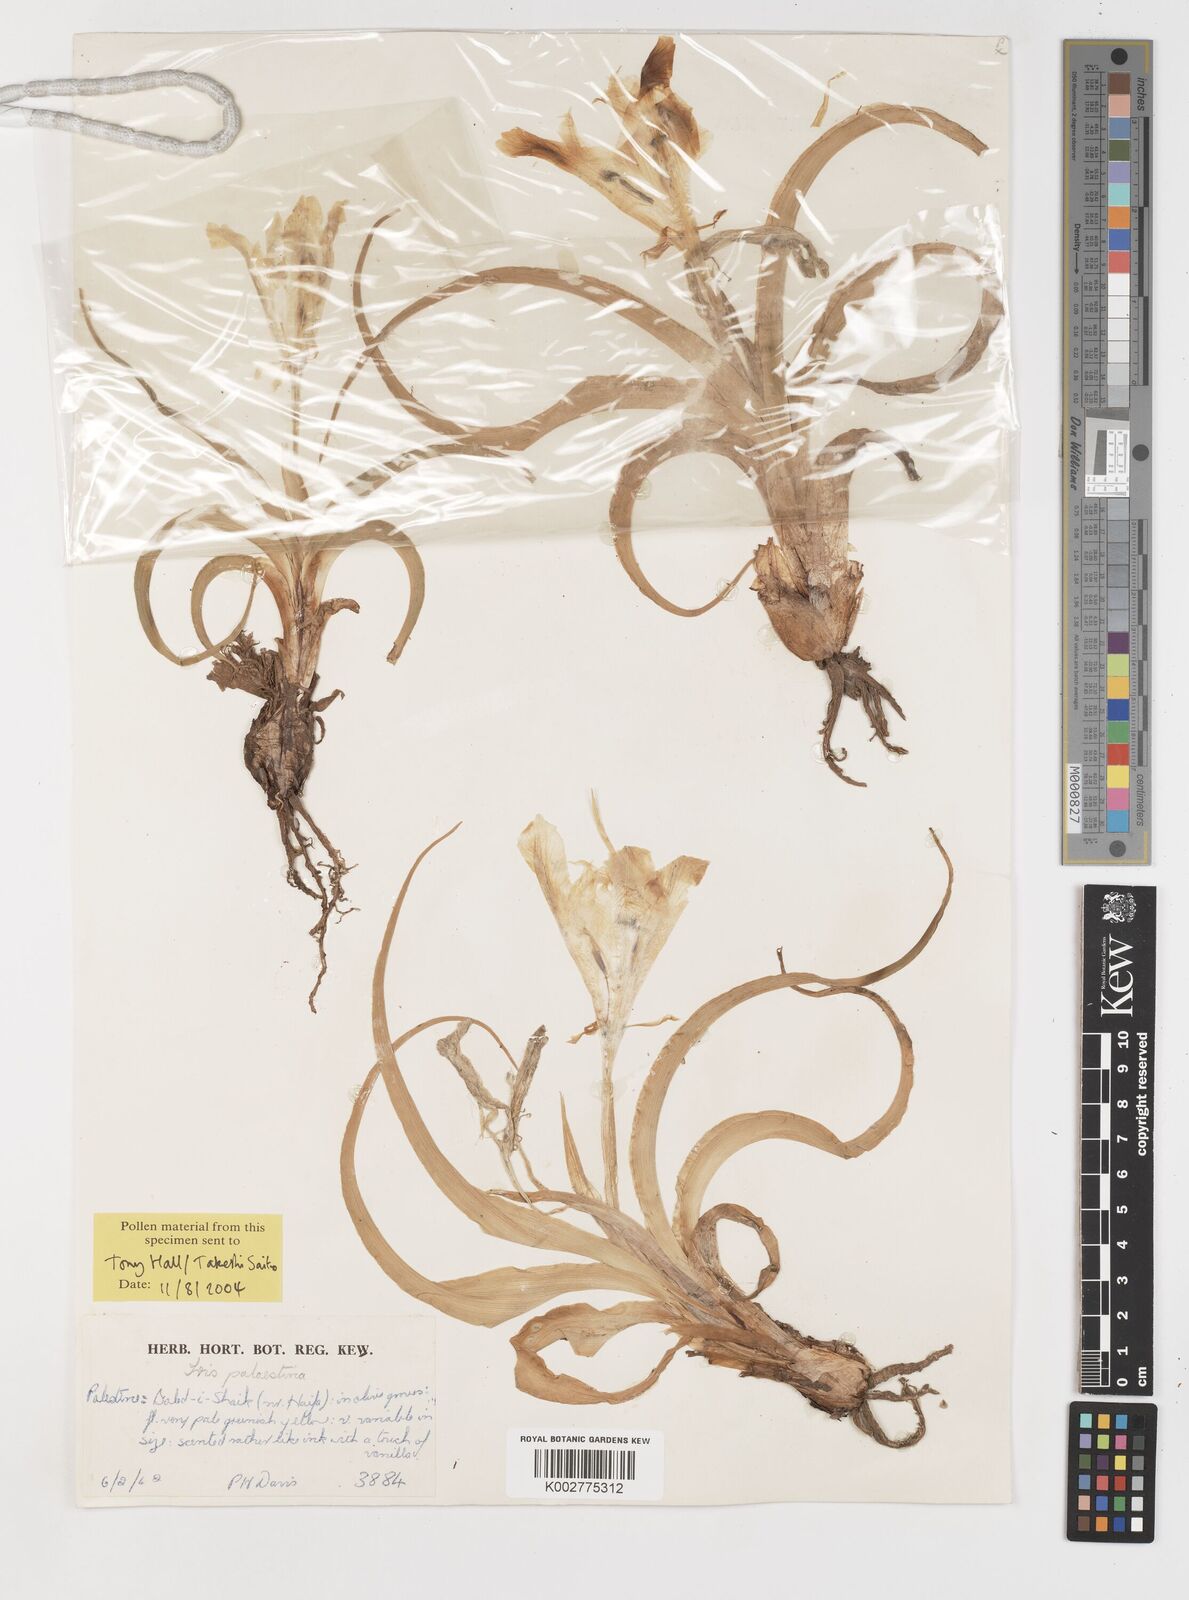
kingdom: Plantae
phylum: Tracheophyta
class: Liliopsida
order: Asparagales
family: Iridaceae
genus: Iris
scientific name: Iris palaestina
